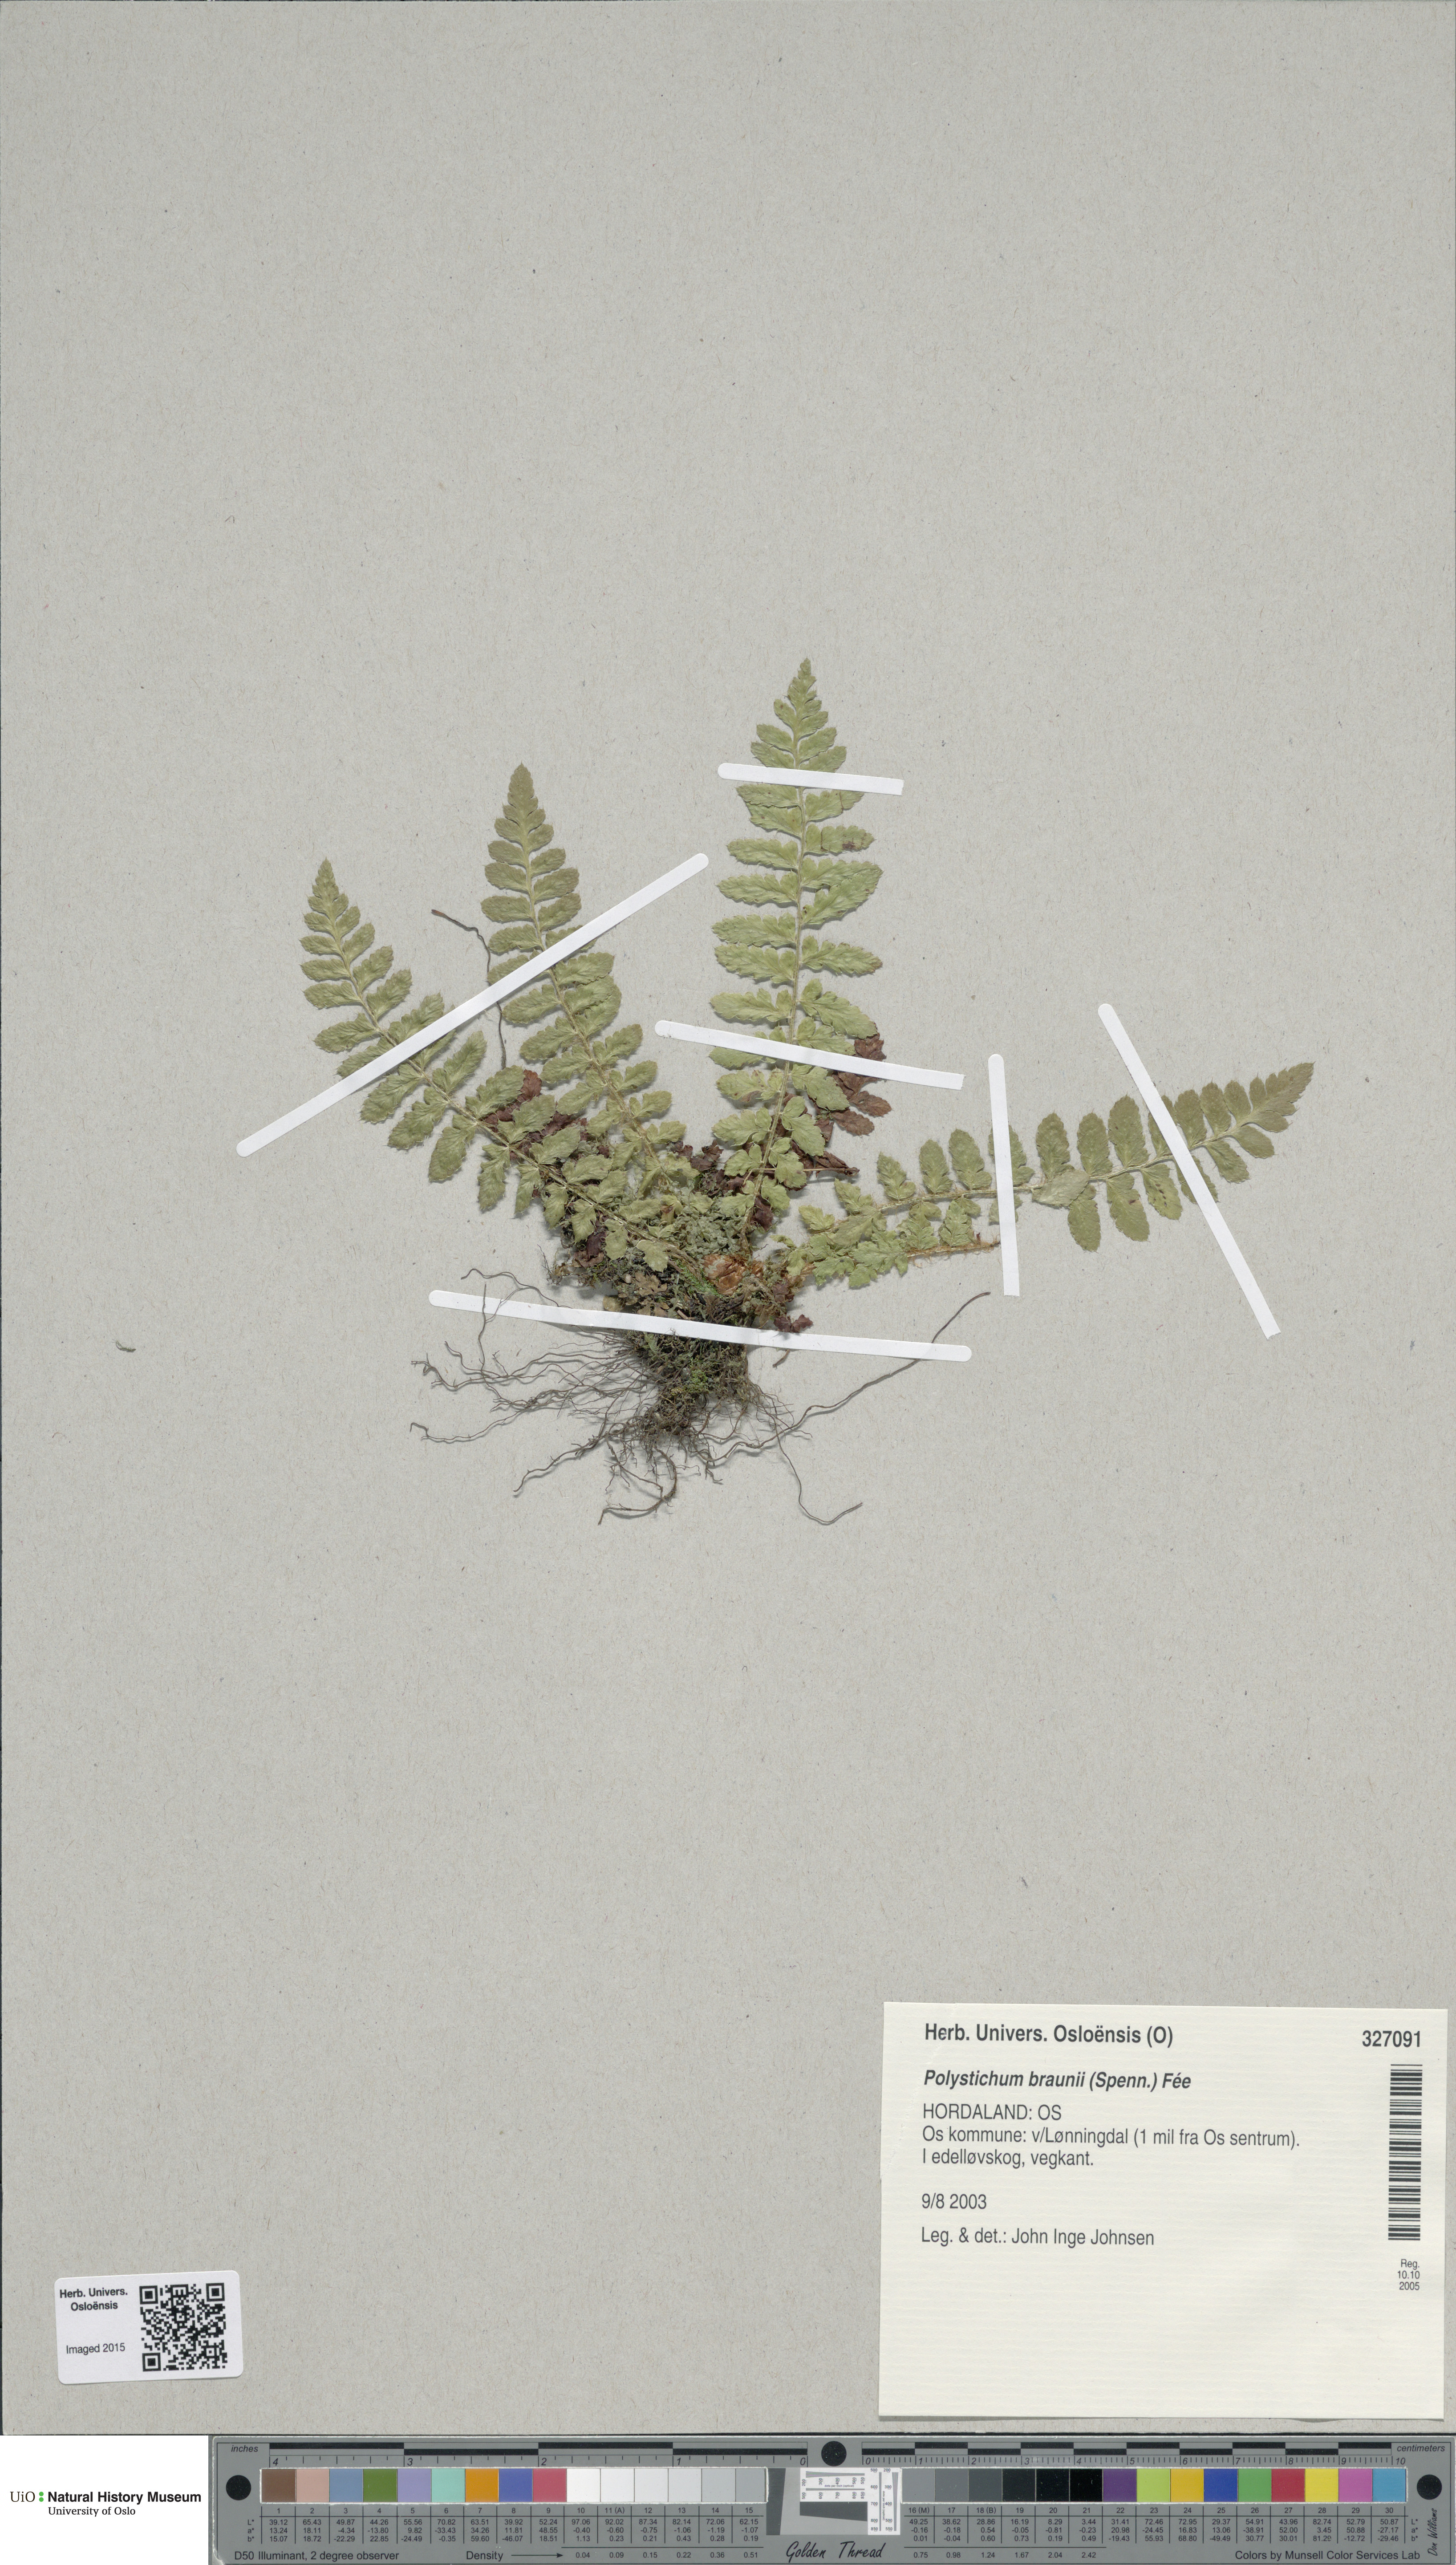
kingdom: Plantae
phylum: Tracheophyta
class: Polypodiopsida
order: Polypodiales
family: Dryopteridaceae
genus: Polystichum
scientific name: Polystichum braunii
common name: Braun's holly fern
